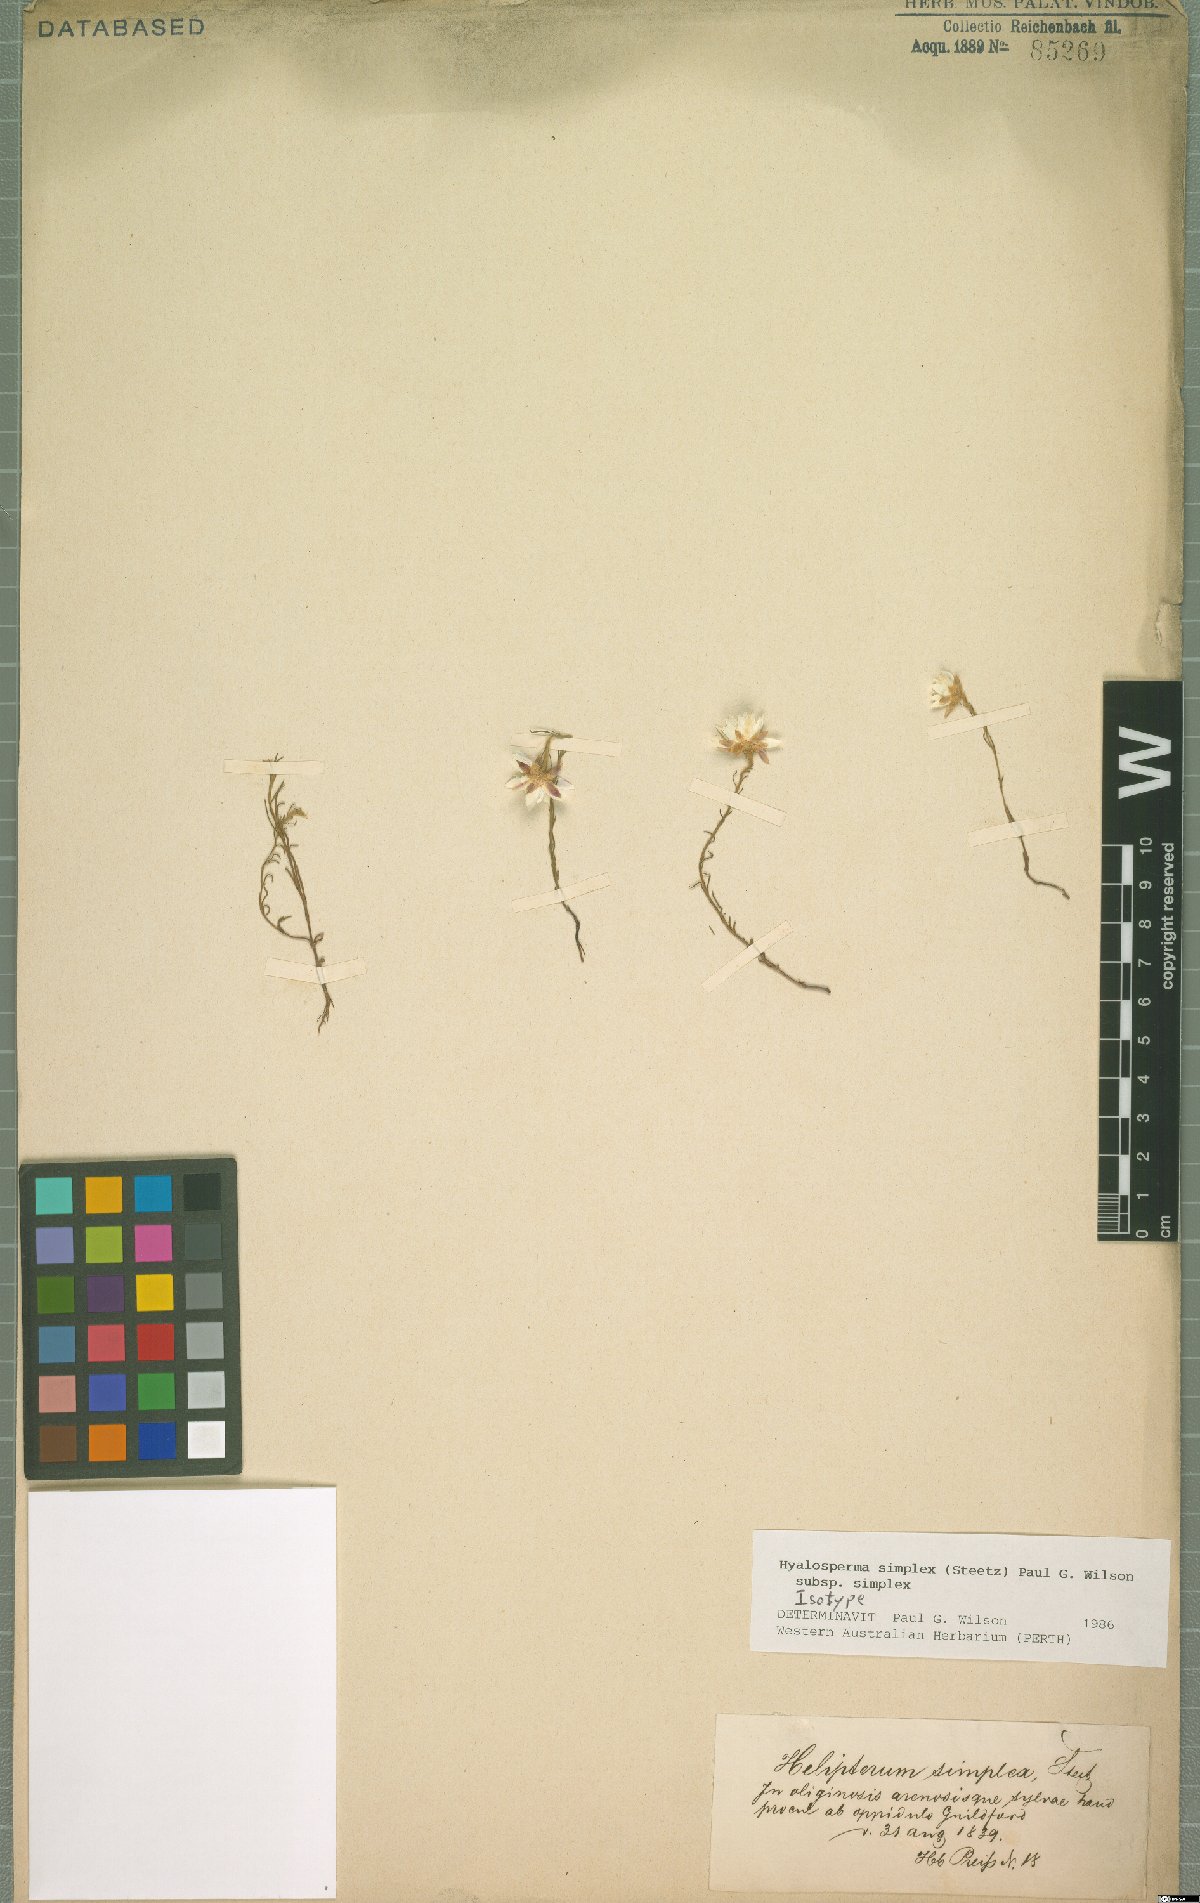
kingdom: Plantae
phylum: Tracheophyta
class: Magnoliopsida
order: Asterales
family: Asteraceae
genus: Hyalosperma
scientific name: Hyalosperma simplex
